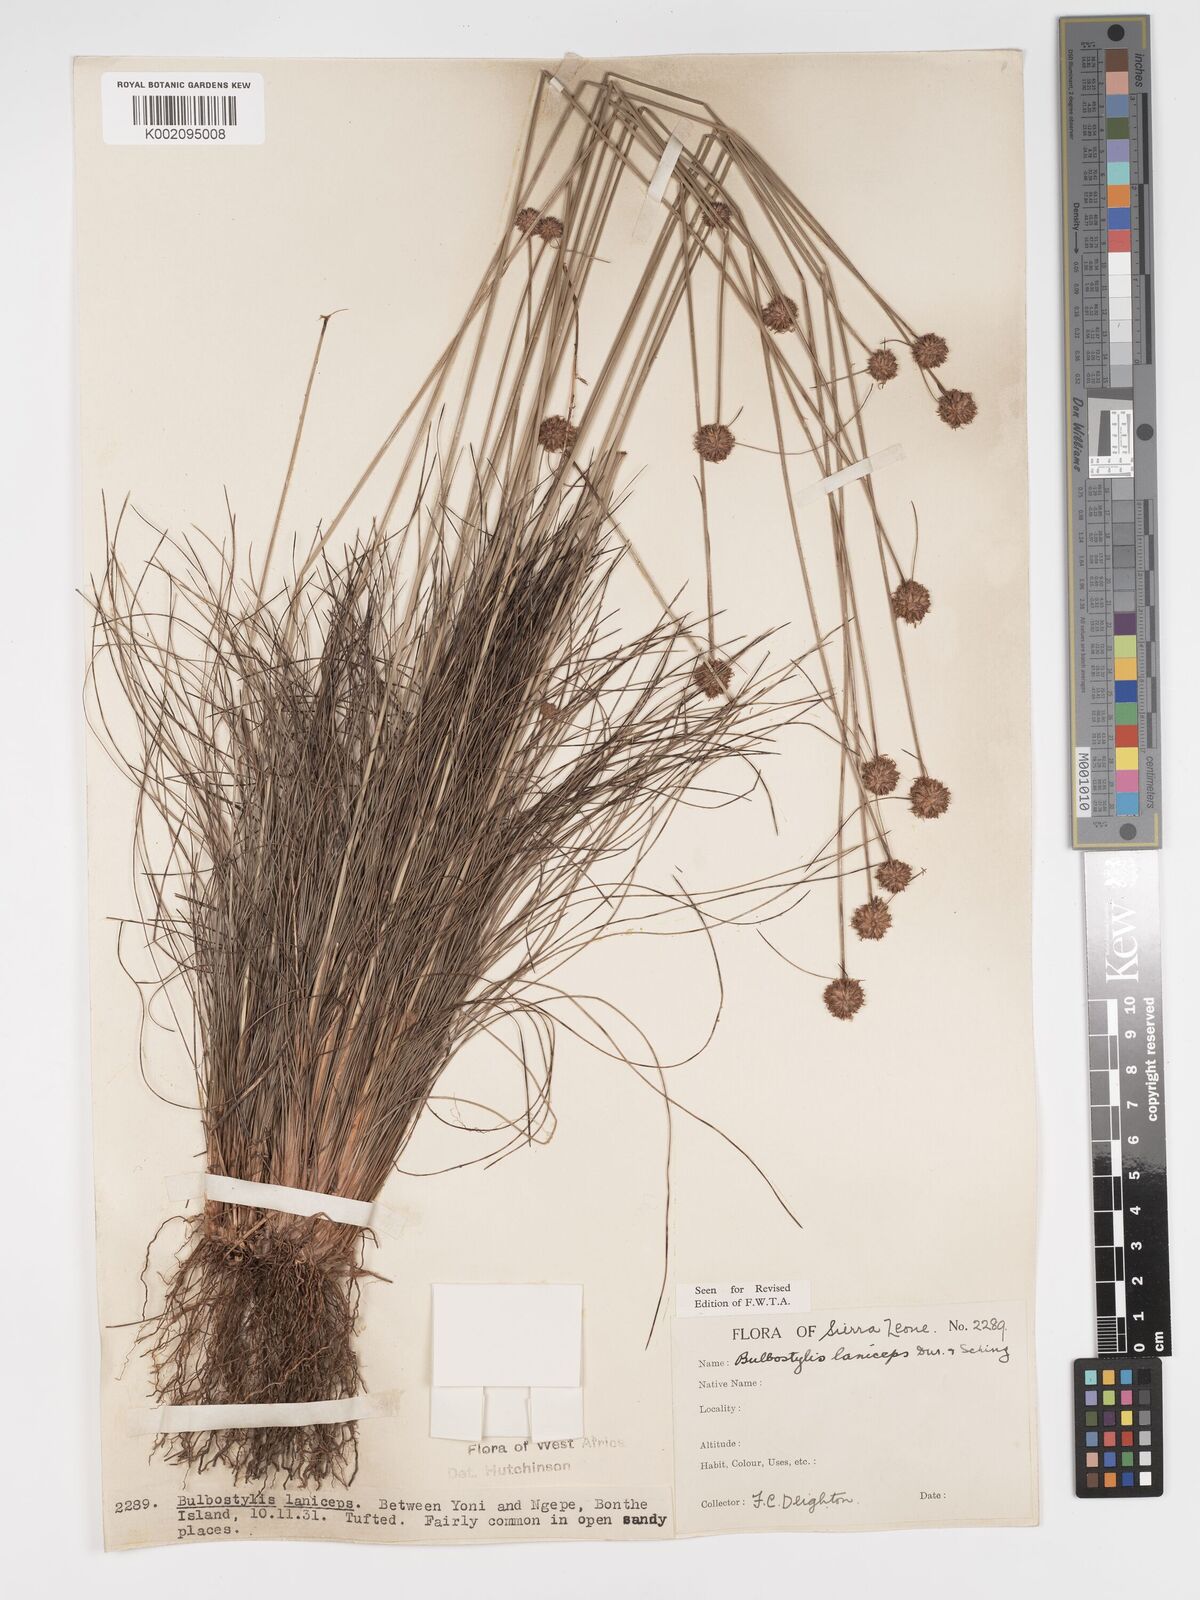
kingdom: Plantae
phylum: Tracheophyta
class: Liliopsida
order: Poales
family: Cyperaceae
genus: Bulbostylis
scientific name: Bulbostylis laniceps
